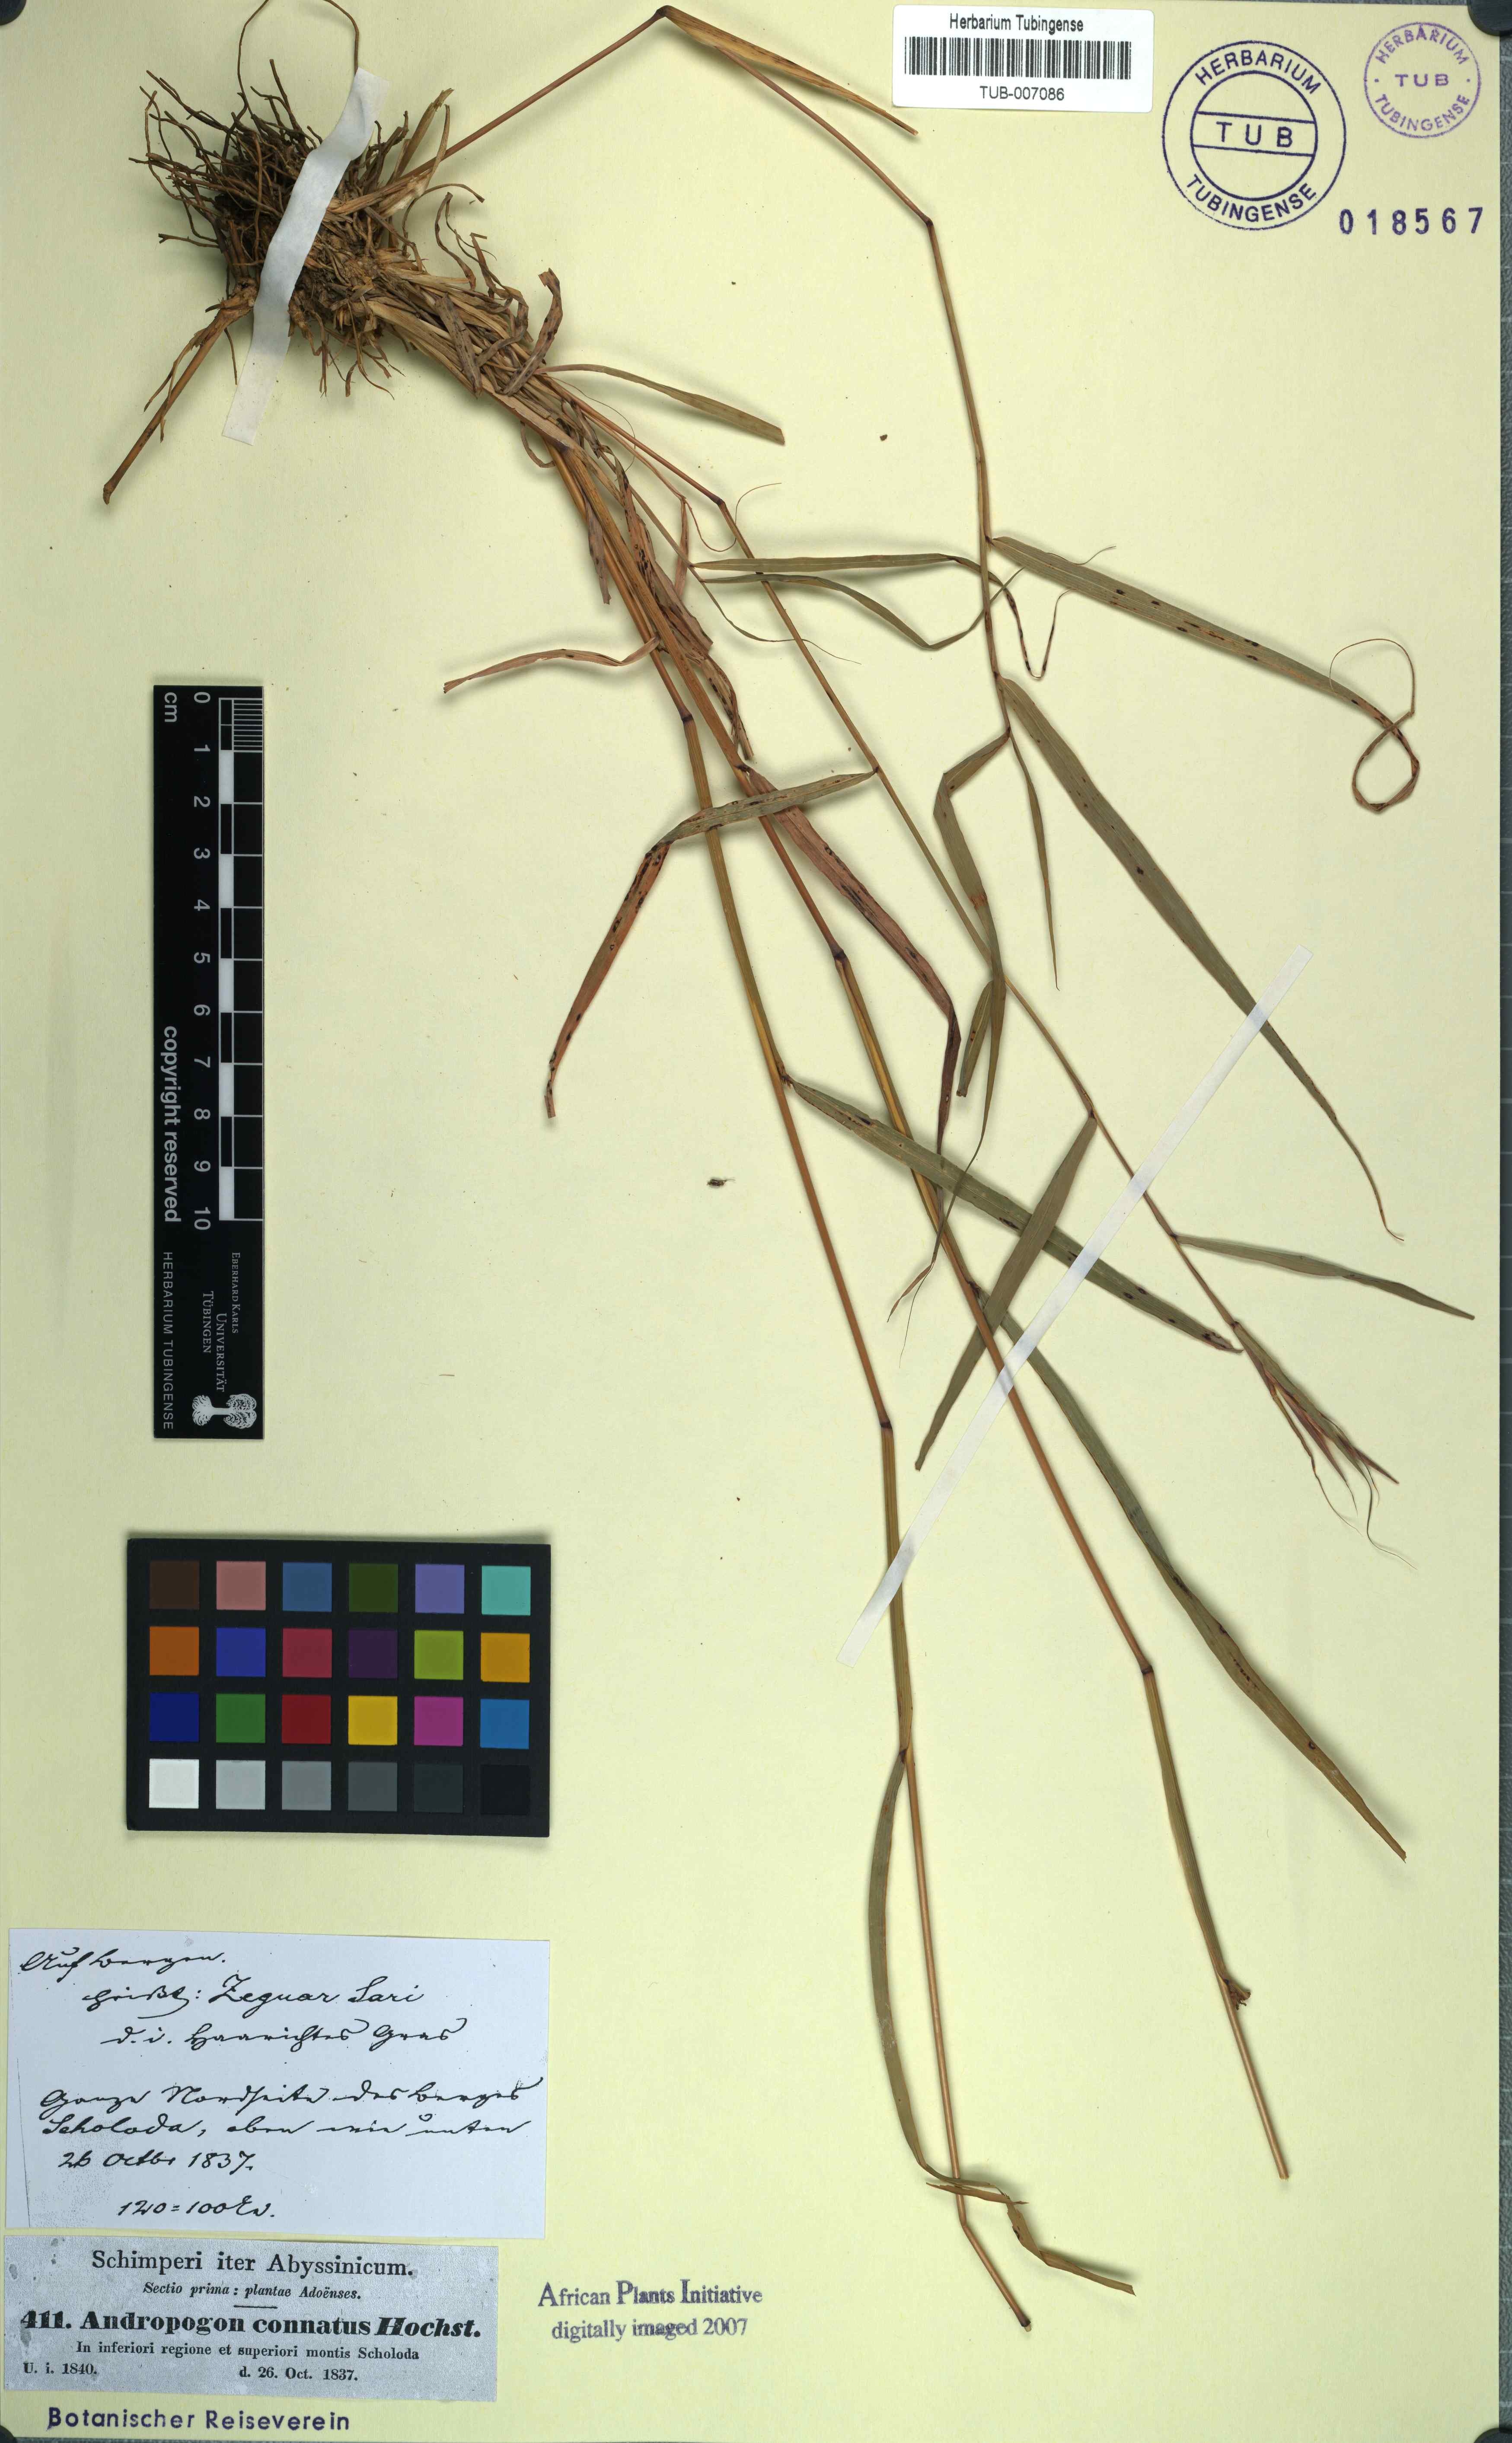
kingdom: Plantae
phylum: Tracheophyta
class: Liliopsida
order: Poales
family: Poaceae
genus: Cymbopogon
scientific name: Cymbopogon schoenanthus
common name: Geranium grass
